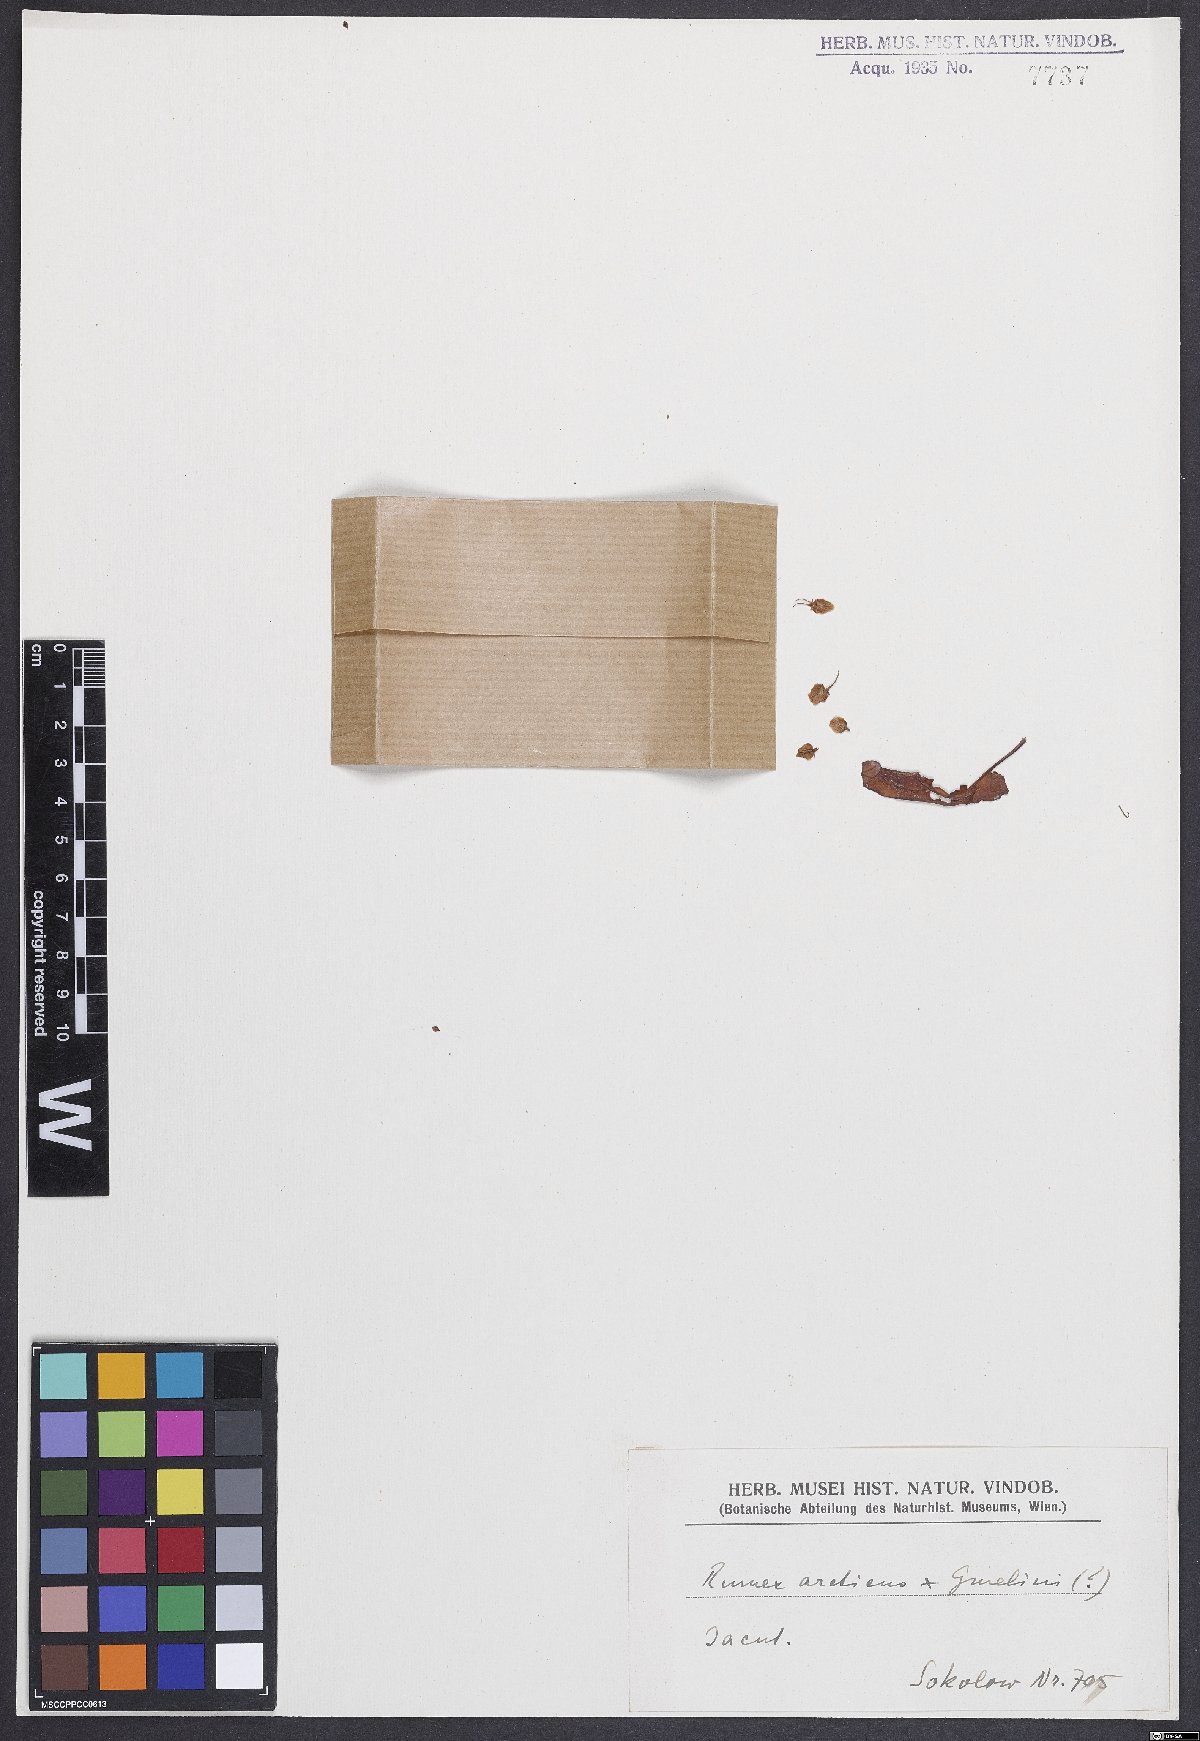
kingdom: Plantae
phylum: Tracheophyta
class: Magnoliopsida
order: Caryophyllales
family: Polygonaceae
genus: Rumex
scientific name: Rumex
